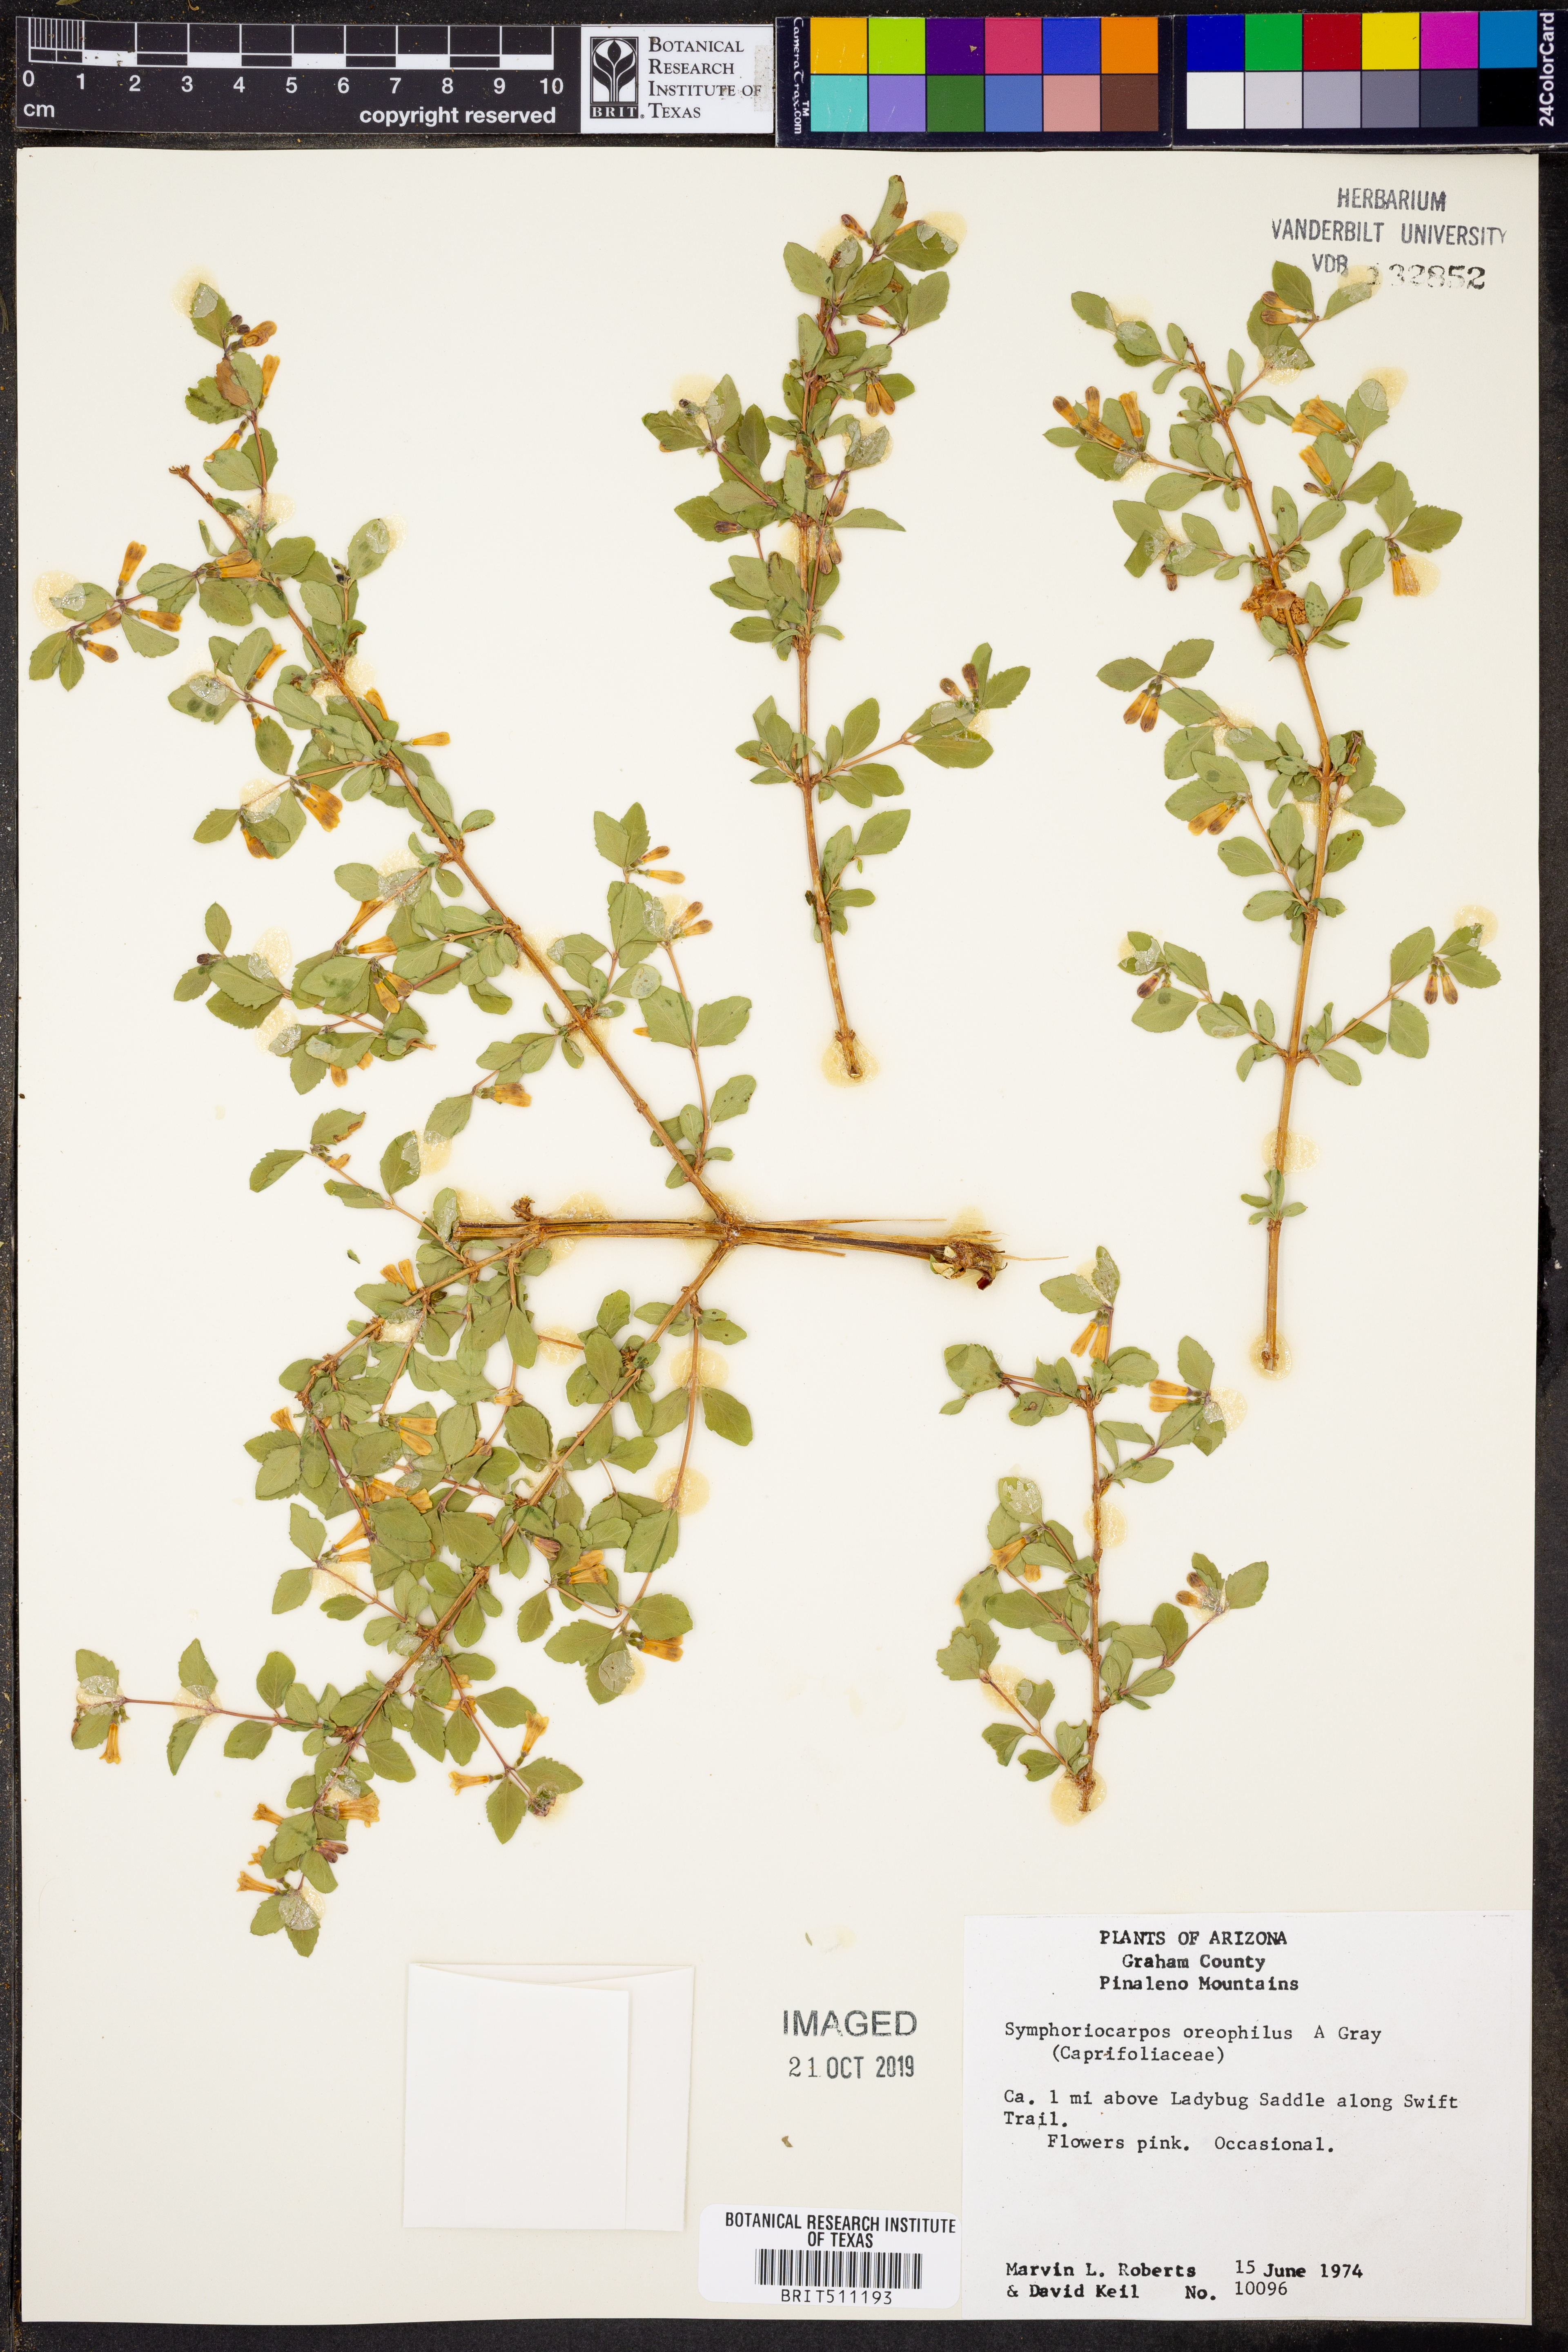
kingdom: Plantae
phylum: Tracheophyta
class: Magnoliopsida
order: Dipsacales
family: Caprifoliaceae
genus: Symphoricarpos
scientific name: Symphoricarpos oreophilus
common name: Mountain snowberry
